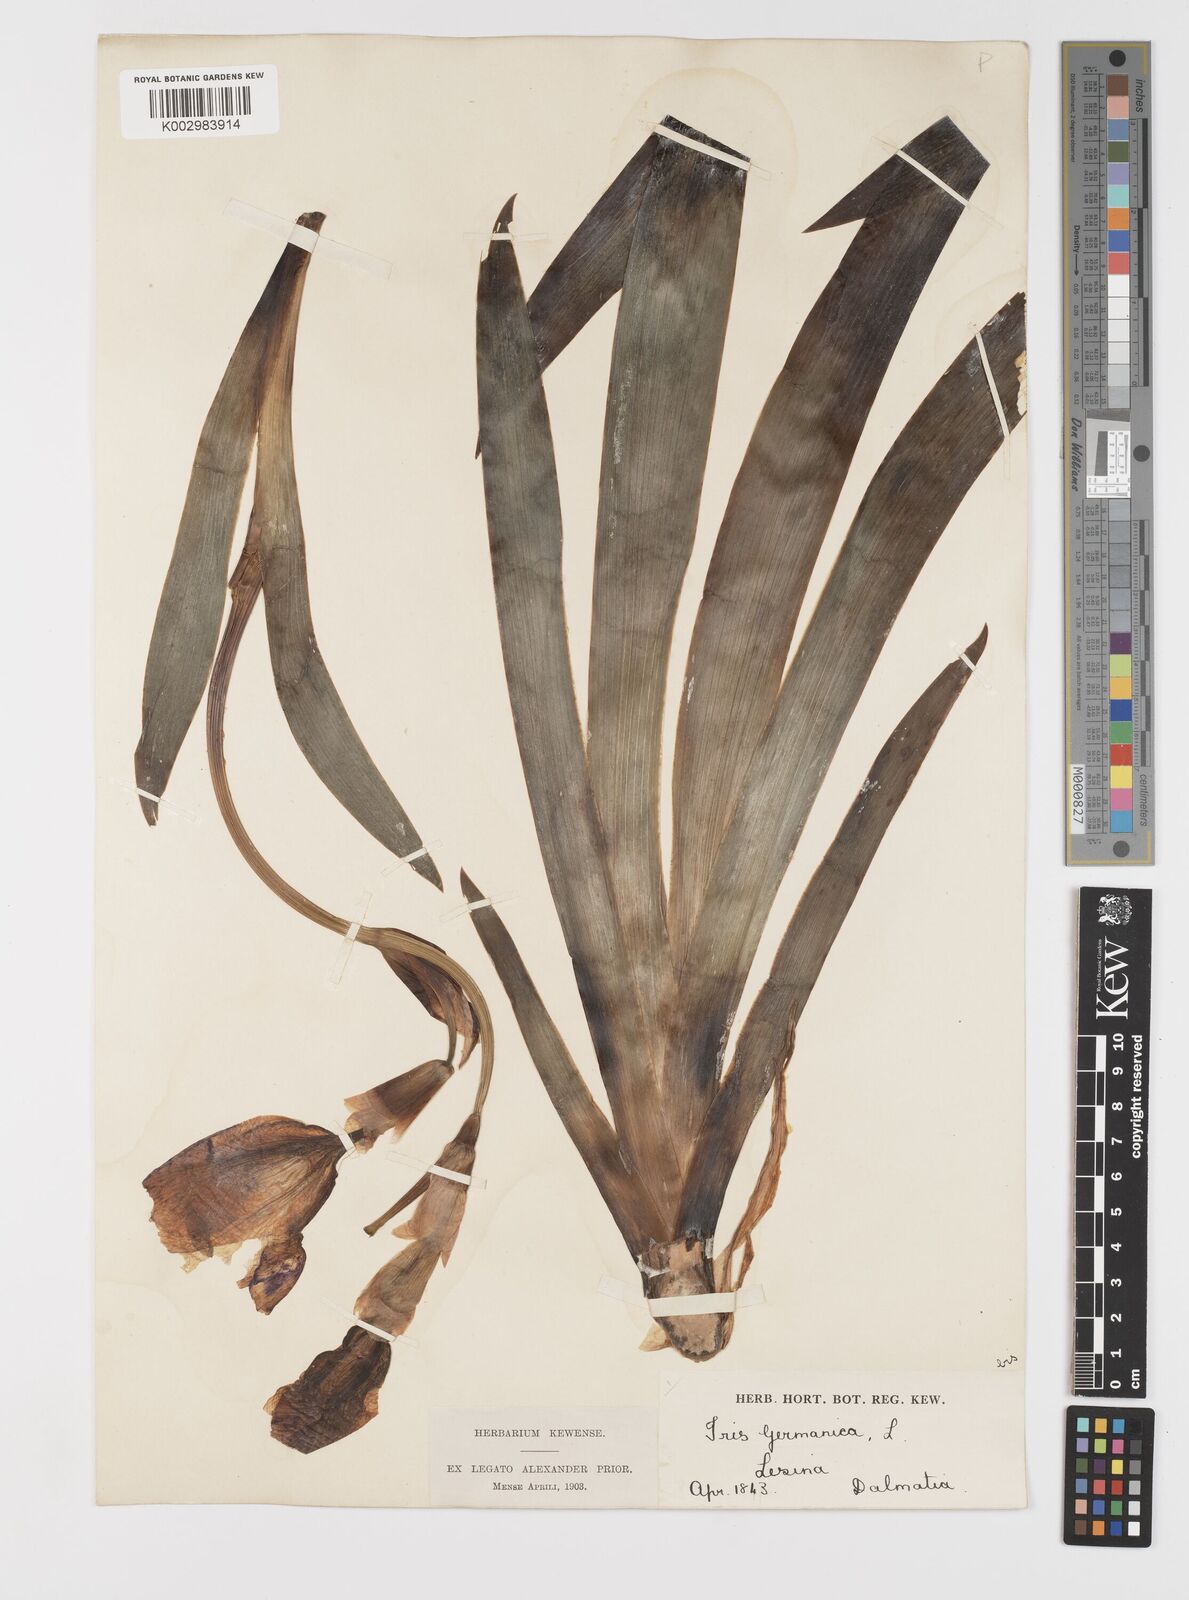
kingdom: Plantae
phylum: Tracheophyta
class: Liliopsida
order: Asparagales
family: Iridaceae
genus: Iris
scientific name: Iris germanica
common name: German iris
